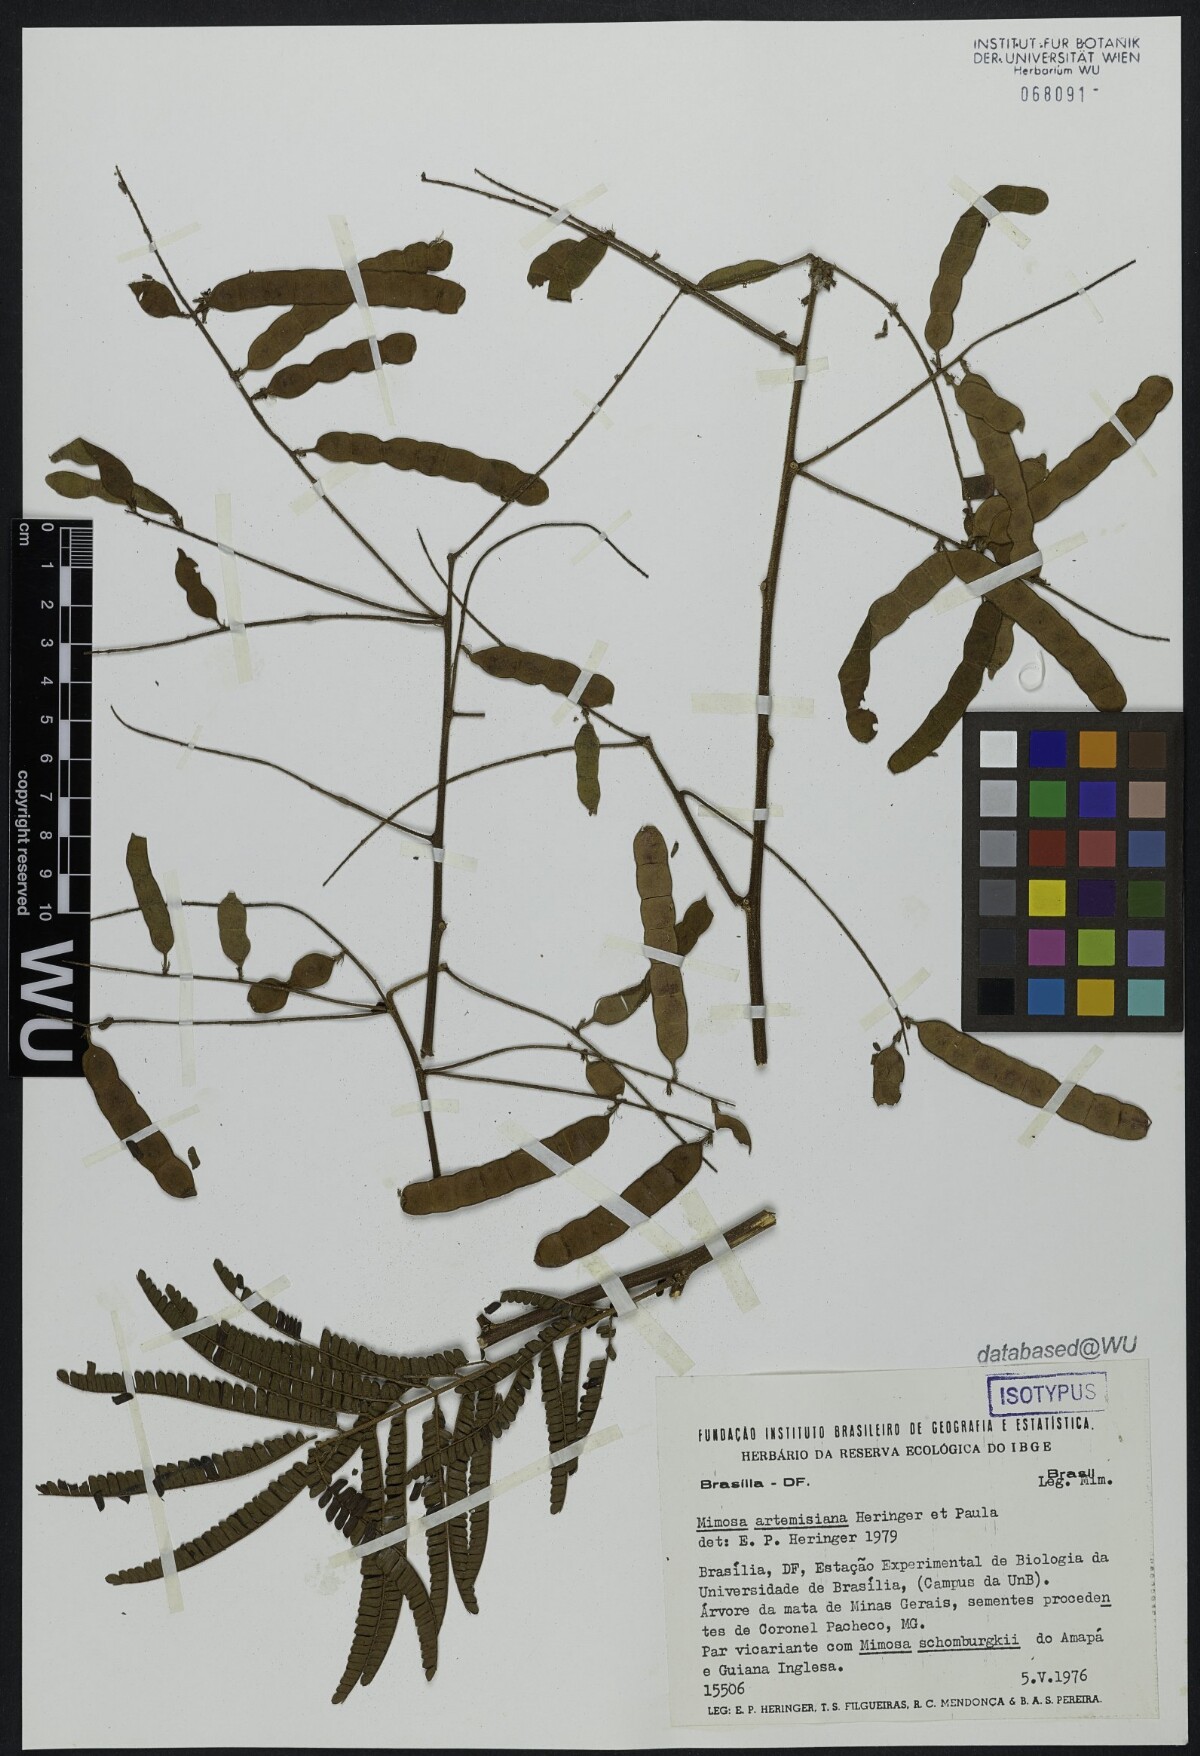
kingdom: Plantae
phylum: Tracheophyta
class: Magnoliopsida
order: Fabales
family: Fabaceae
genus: Mimosa
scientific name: Mimosa schomburgkii
